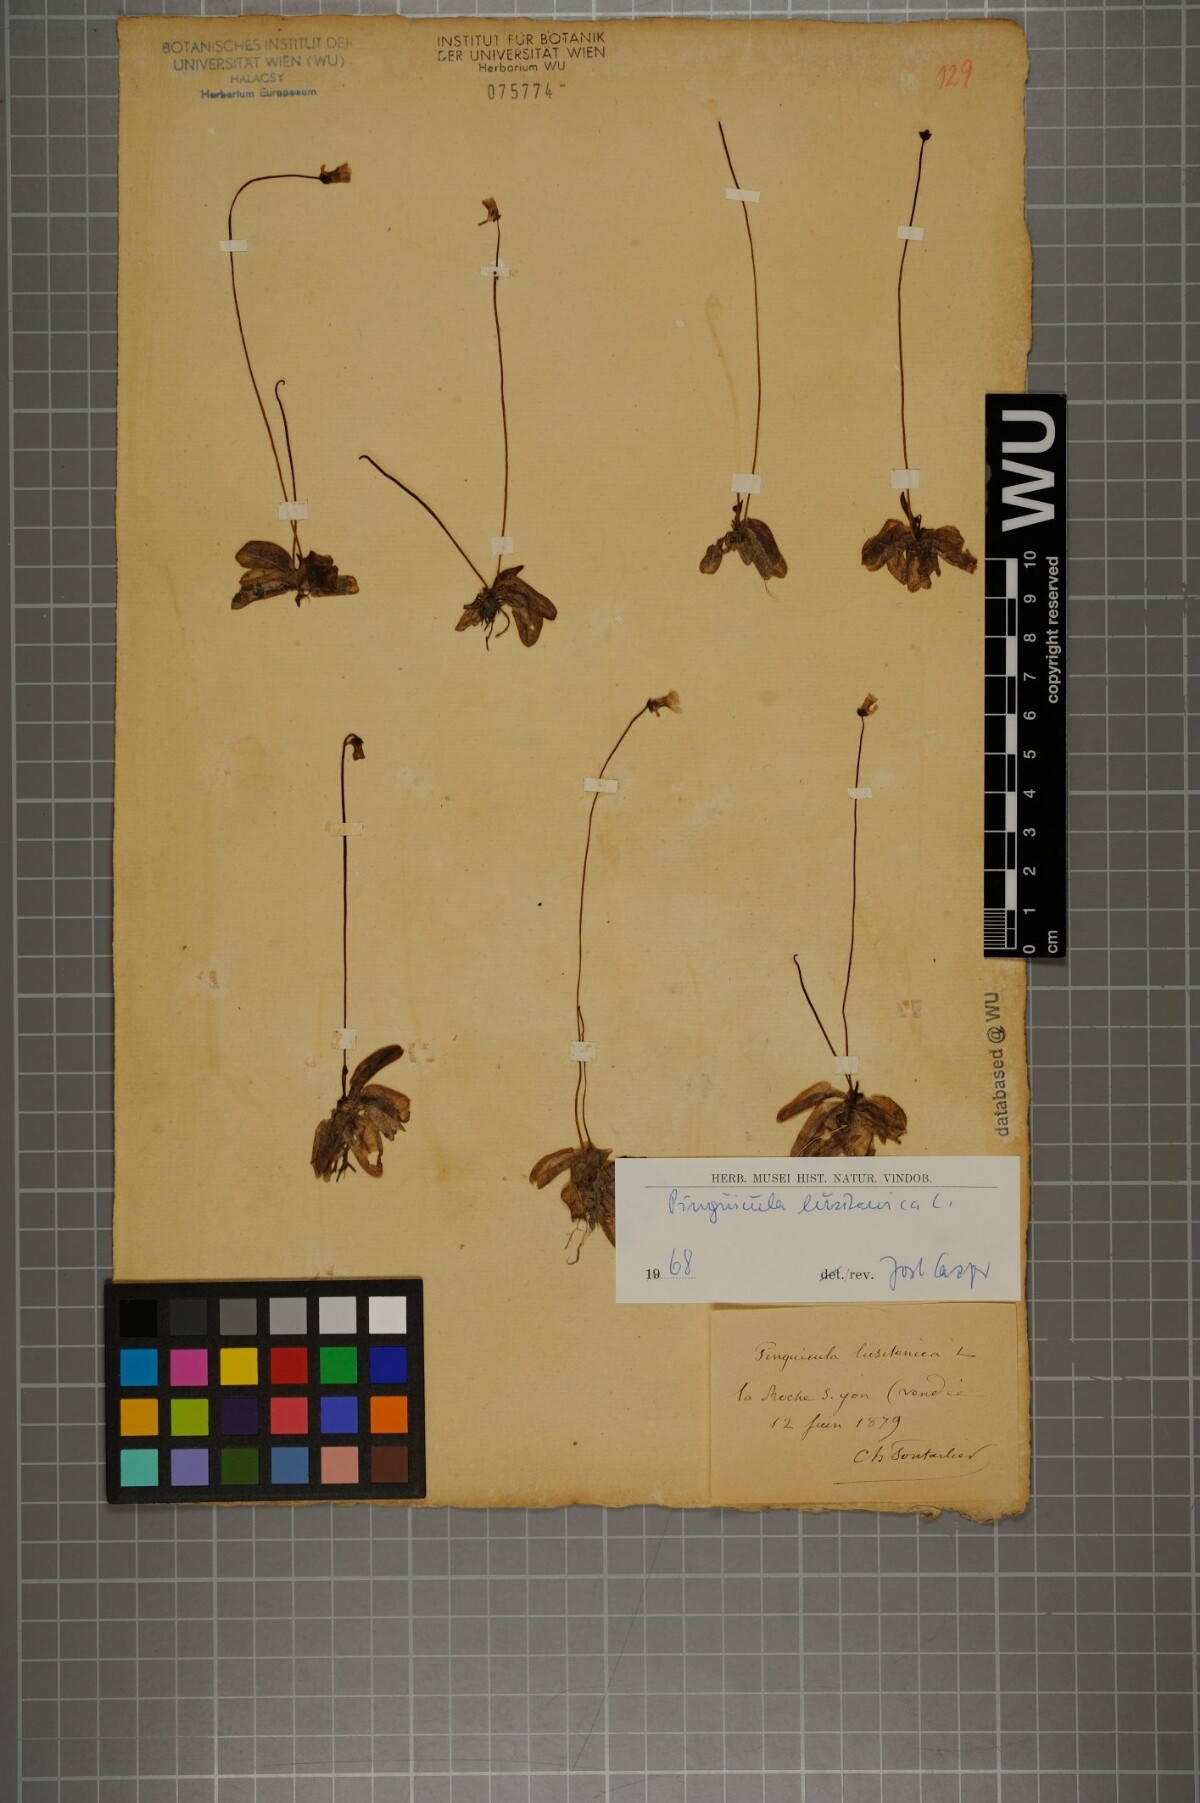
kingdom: Plantae
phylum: Tracheophyta
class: Magnoliopsida
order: Lamiales
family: Lentibulariaceae
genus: Pinguicula
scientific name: Pinguicula lusitanica
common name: Pale butterwort
